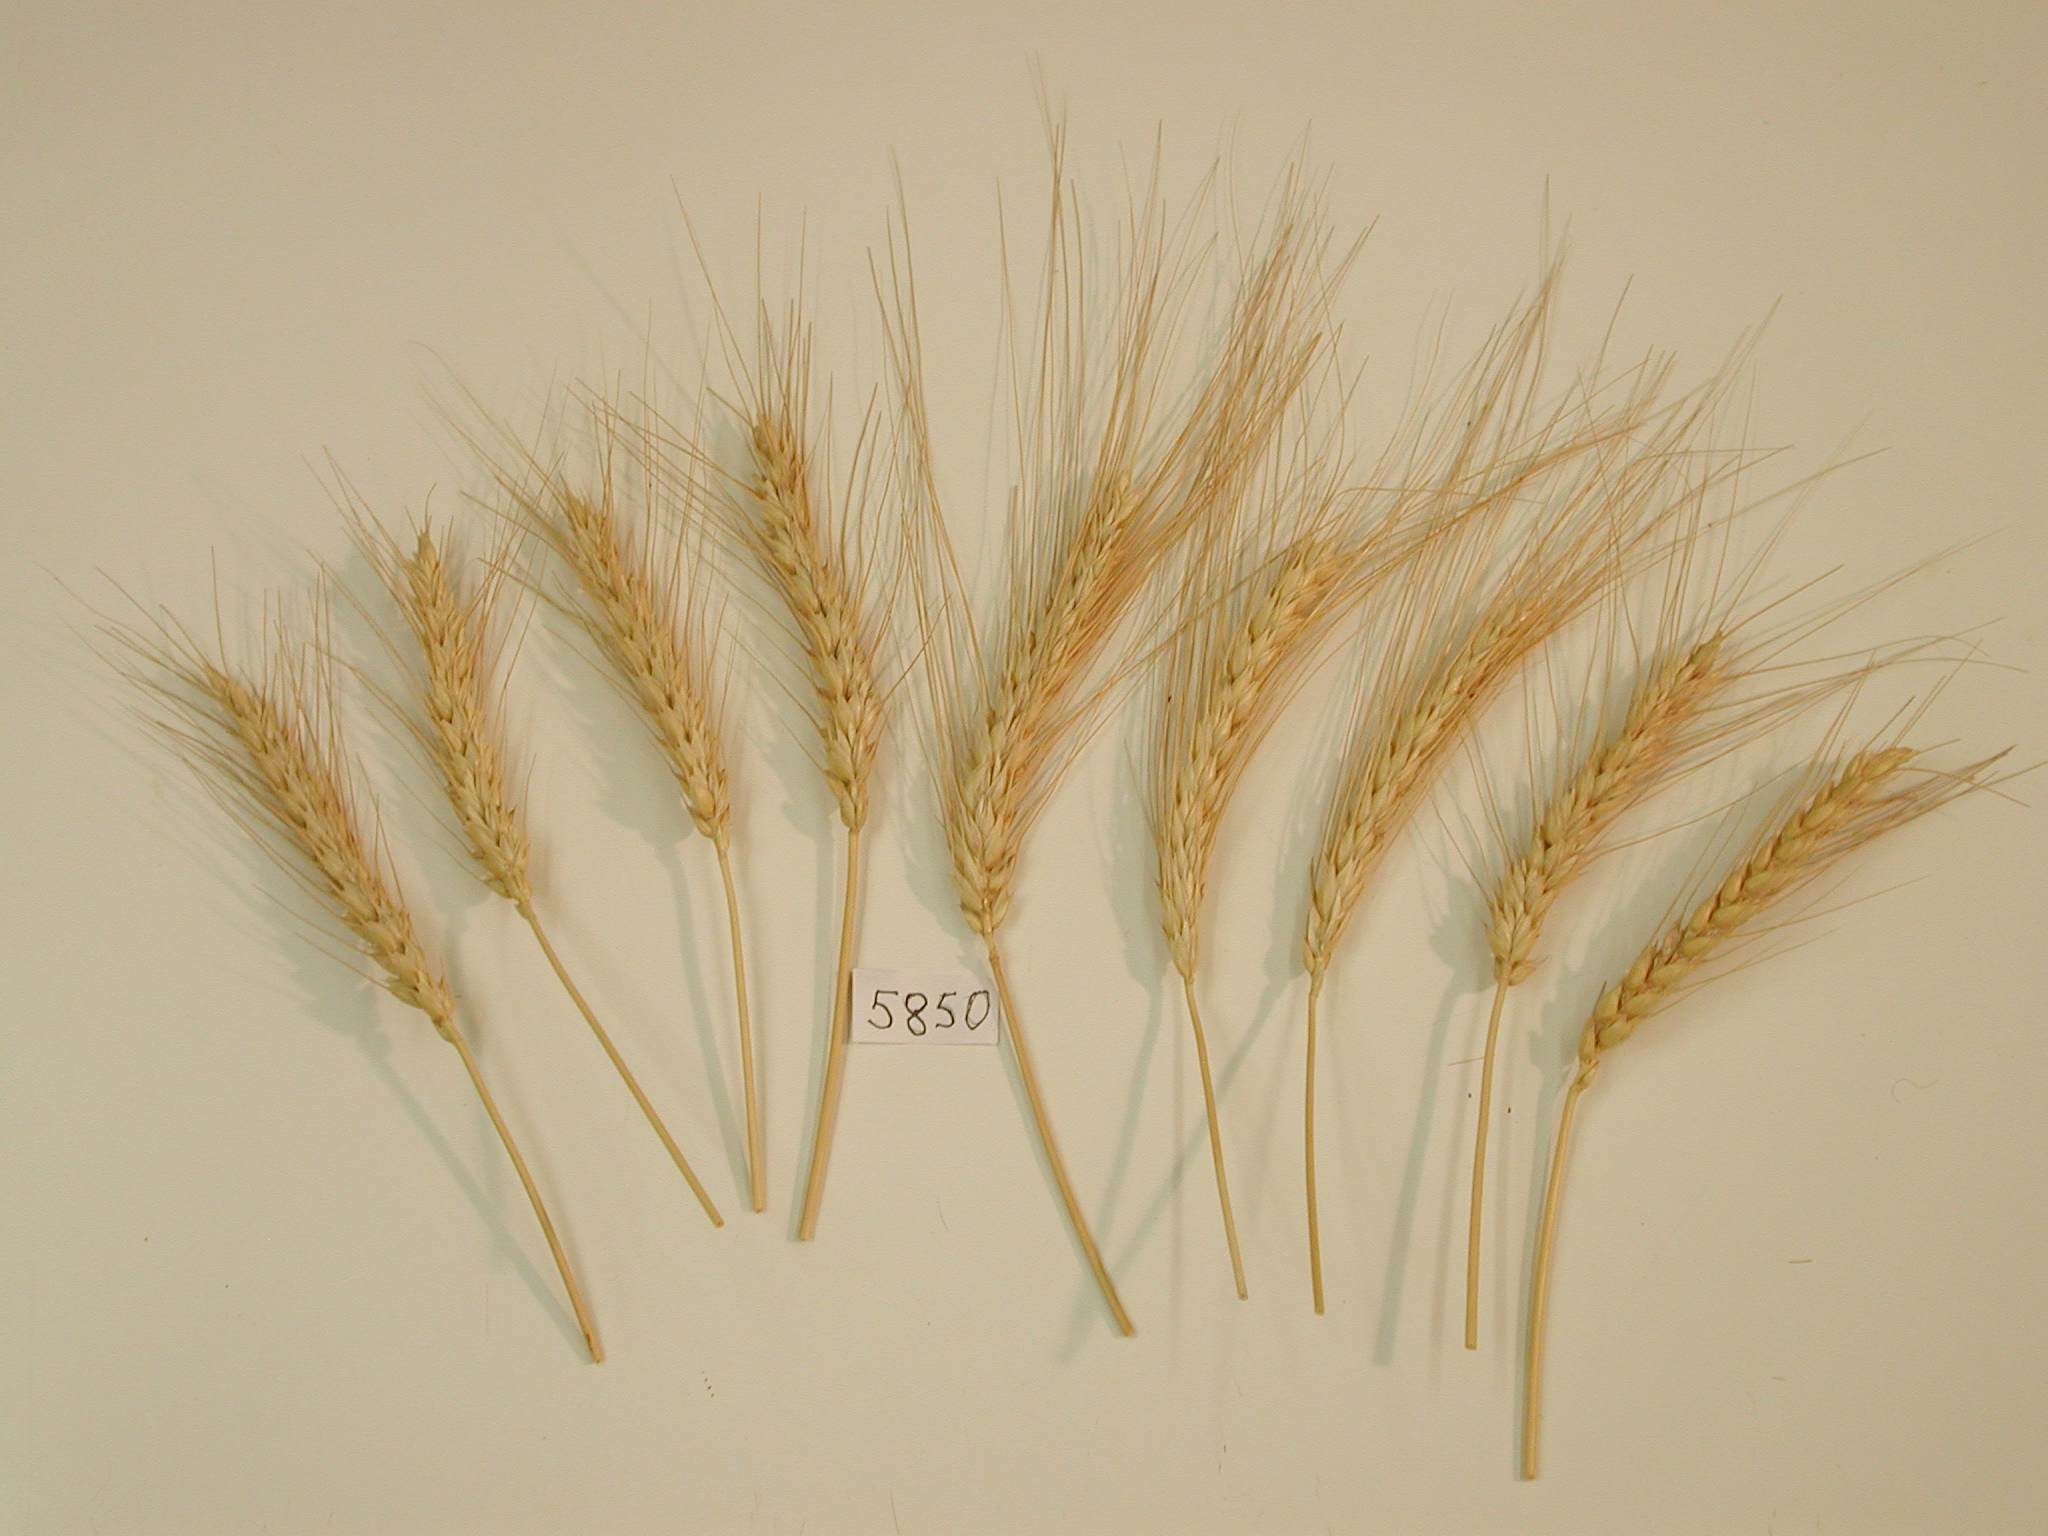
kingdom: Plantae
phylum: Tracheophyta
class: Liliopsida
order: Poales
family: Poaceae
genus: Triticum
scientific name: Triticum turgidum
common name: Wheat
